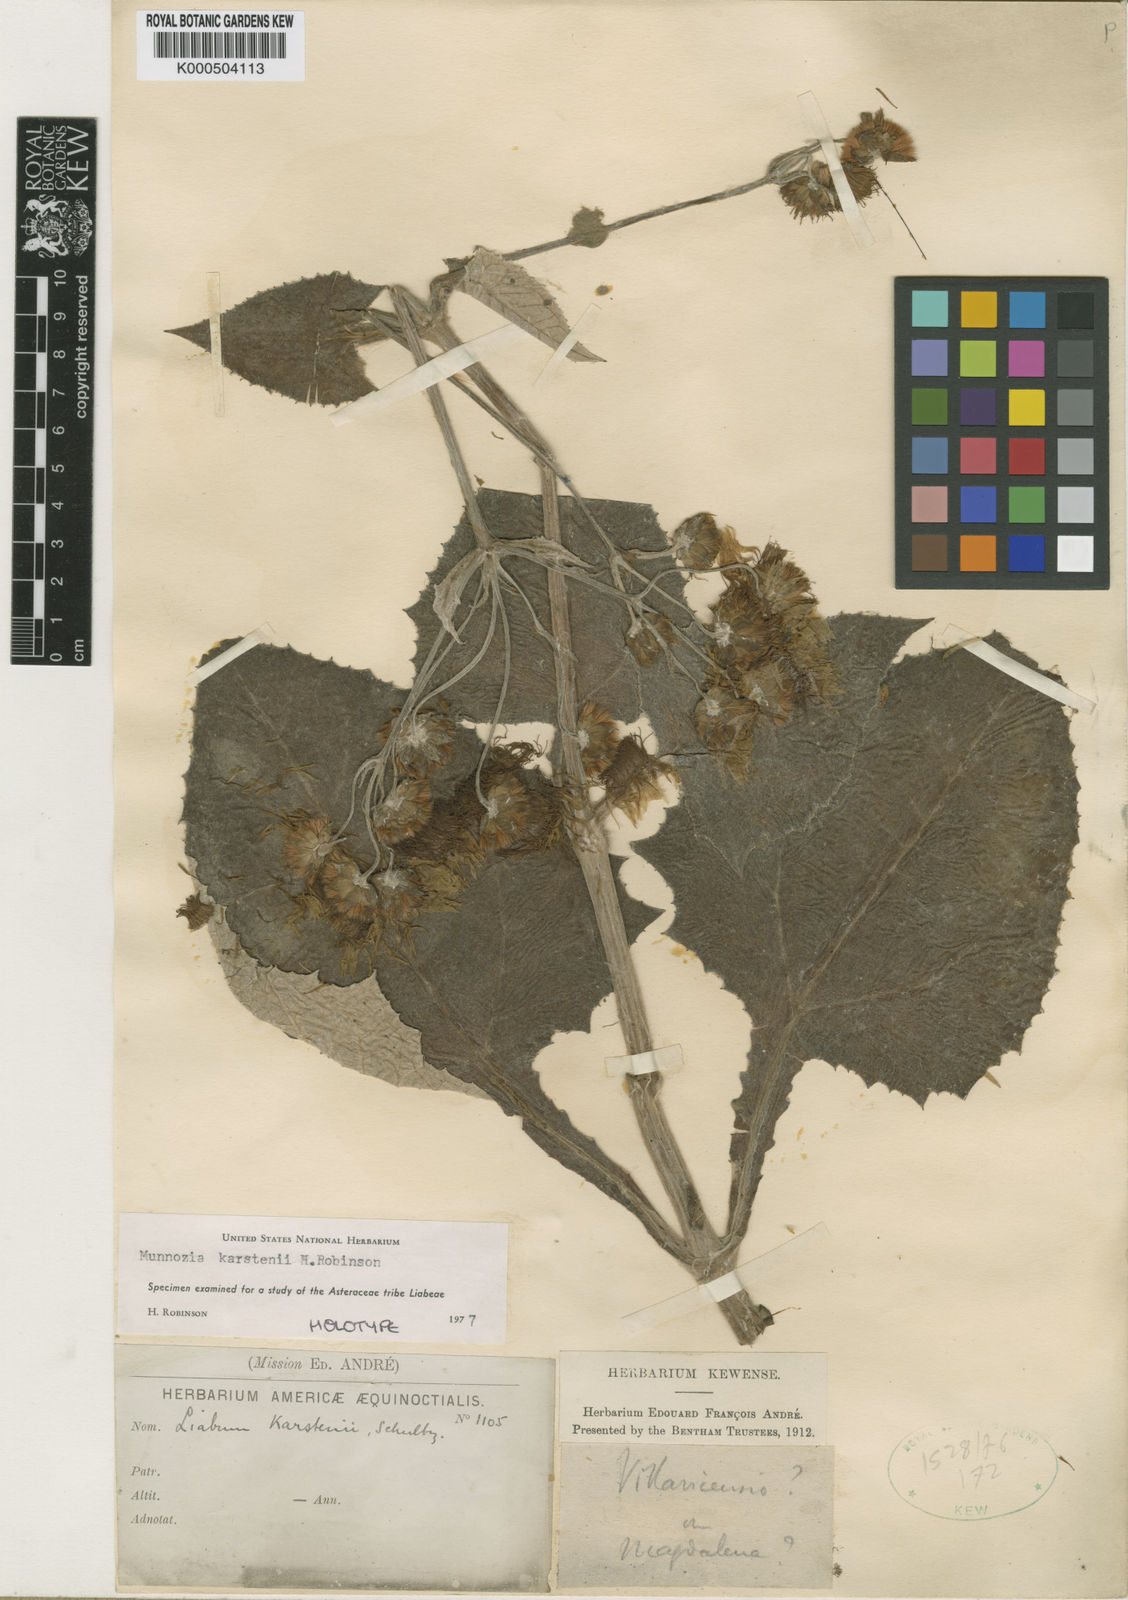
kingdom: Plantae
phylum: Tracheophyta
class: Magnoliopsida
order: Asterales
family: Asteraceae
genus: Munnozia
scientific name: Munnozia karstenii
